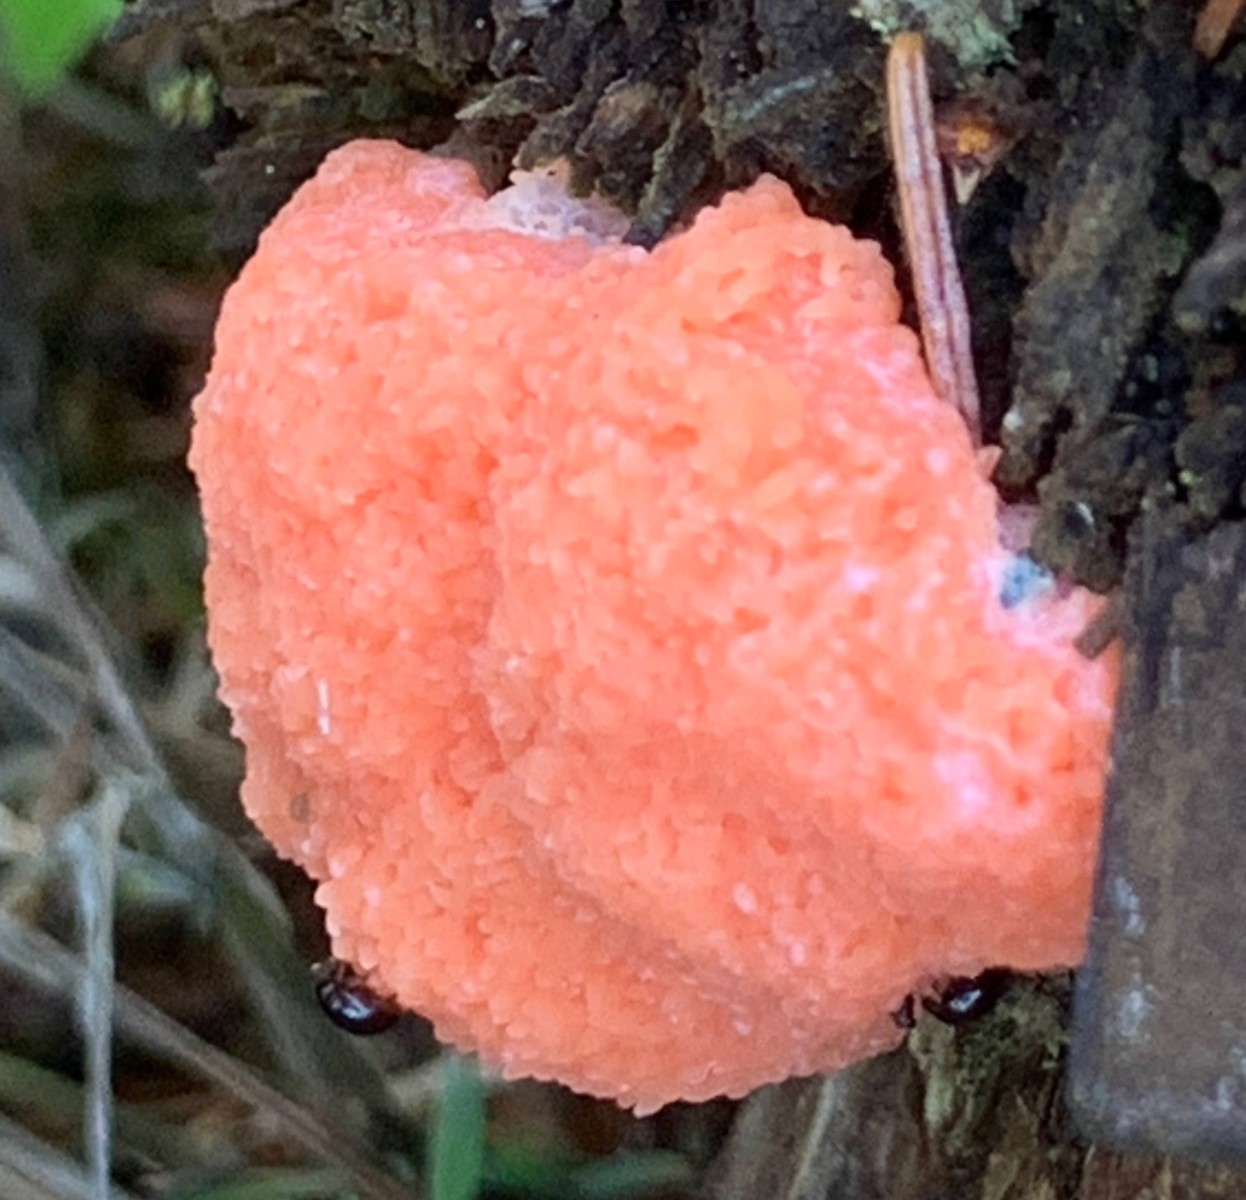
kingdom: Protozoa
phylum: Mycetozoa
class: Myxomycetes
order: Cribrariales
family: Tubiferaceae
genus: Tubifera
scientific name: Tubifera ferruginosa
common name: kanel-støvrør
